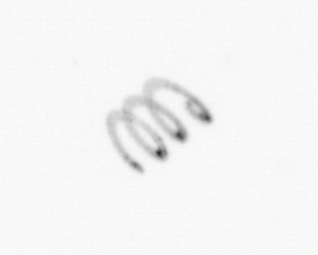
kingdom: Chromista
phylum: Ochrophyta
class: Bacillariophyceae
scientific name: Bacillariophyceae
